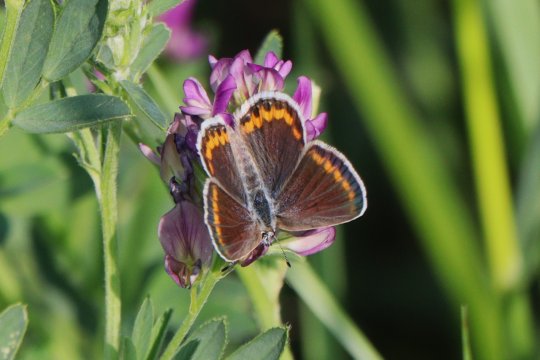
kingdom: Animalia
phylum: Arthropoda
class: Insecta
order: Lepidoptera
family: Lycaenidae
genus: Lycaeides
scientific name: Lycaeides melissa
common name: Melissa Blue
